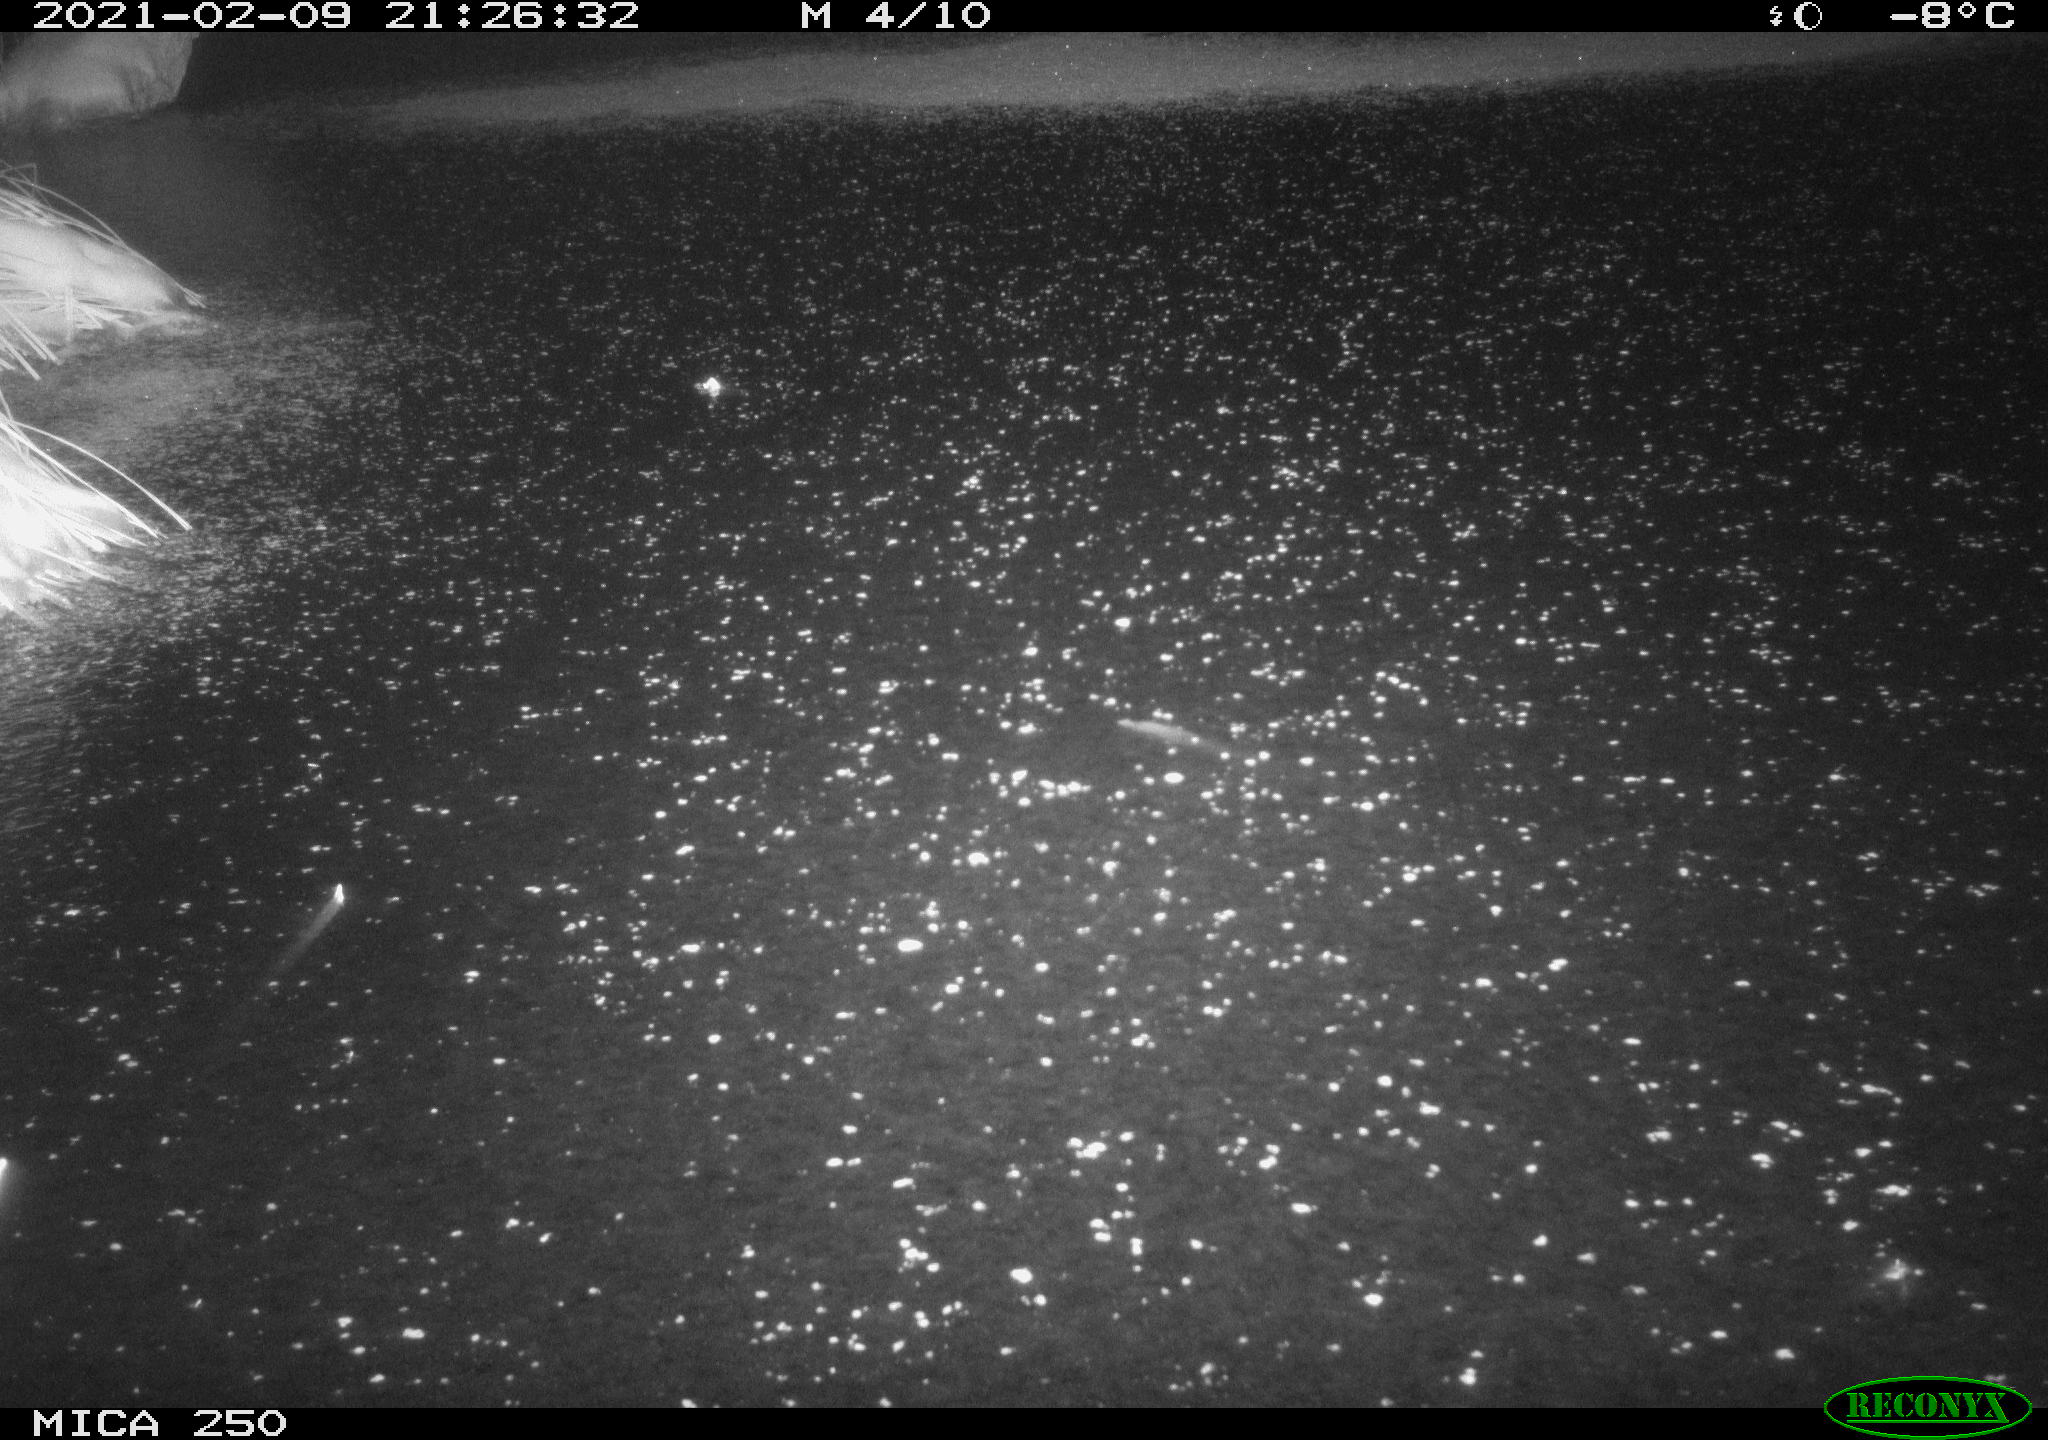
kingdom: Animalia
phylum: Chordata
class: Mammalia
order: Carnivora
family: Canidae
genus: Vulpes
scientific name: Vulpes vulpes
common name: Red fox
